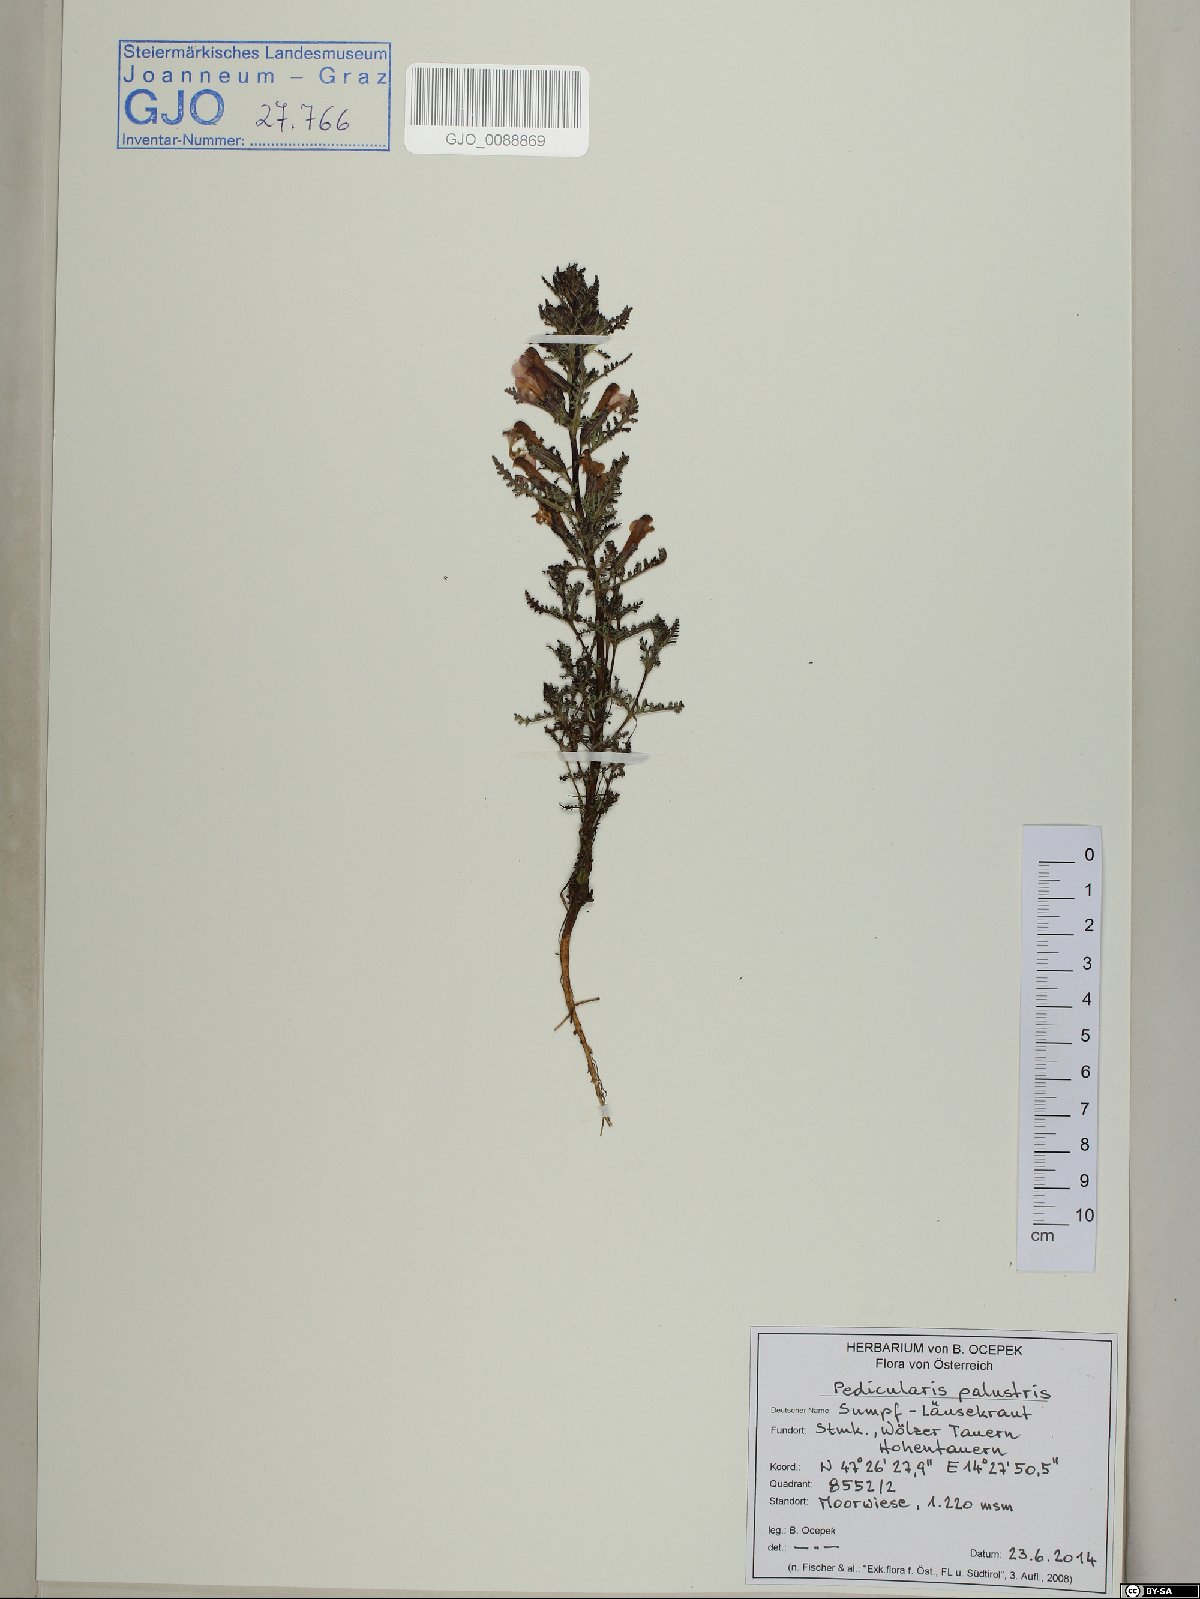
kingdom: Plantae
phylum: Tracheophyta
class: Magnoliopsida
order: Lamiales
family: Orobanchaceae
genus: Pedicularis
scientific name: Pedicularis palustris
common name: Marsh lousewort
